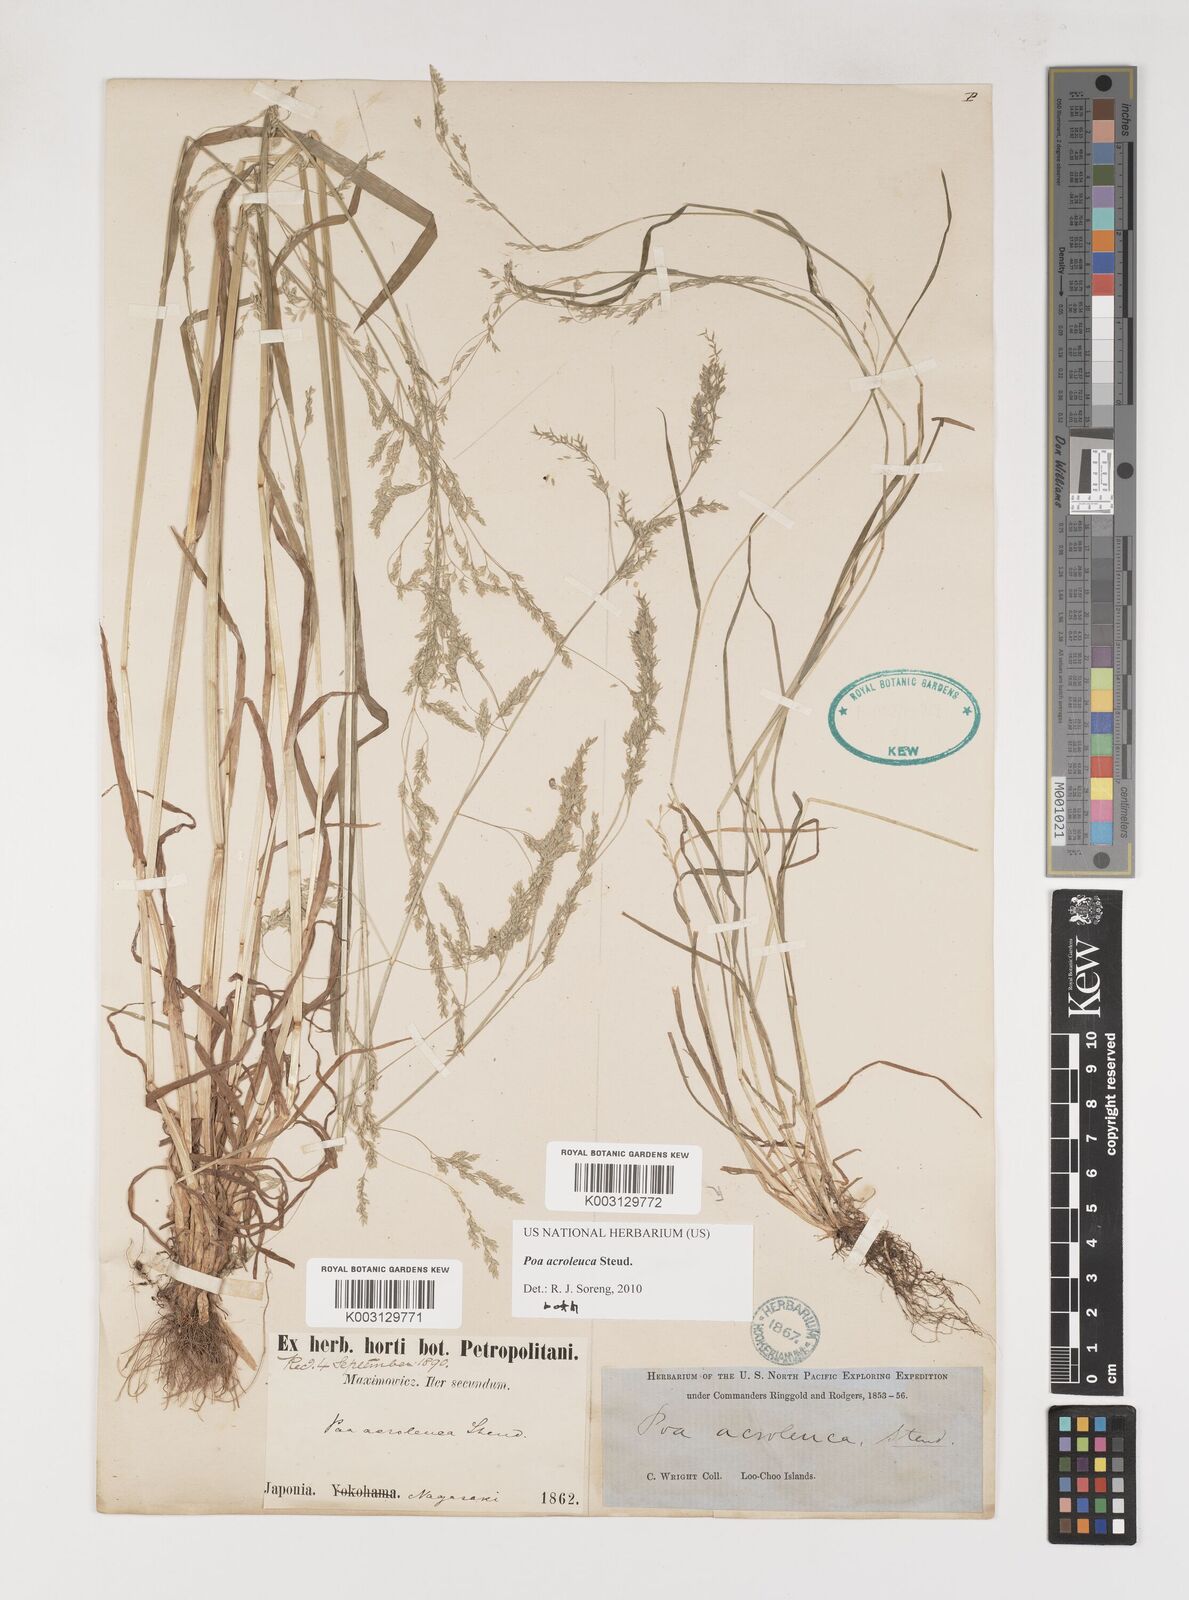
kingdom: Plantae
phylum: Tracheophyta
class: Liliopsida
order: Poales
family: Poaceae
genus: Poa
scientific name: Poa acroleuca
